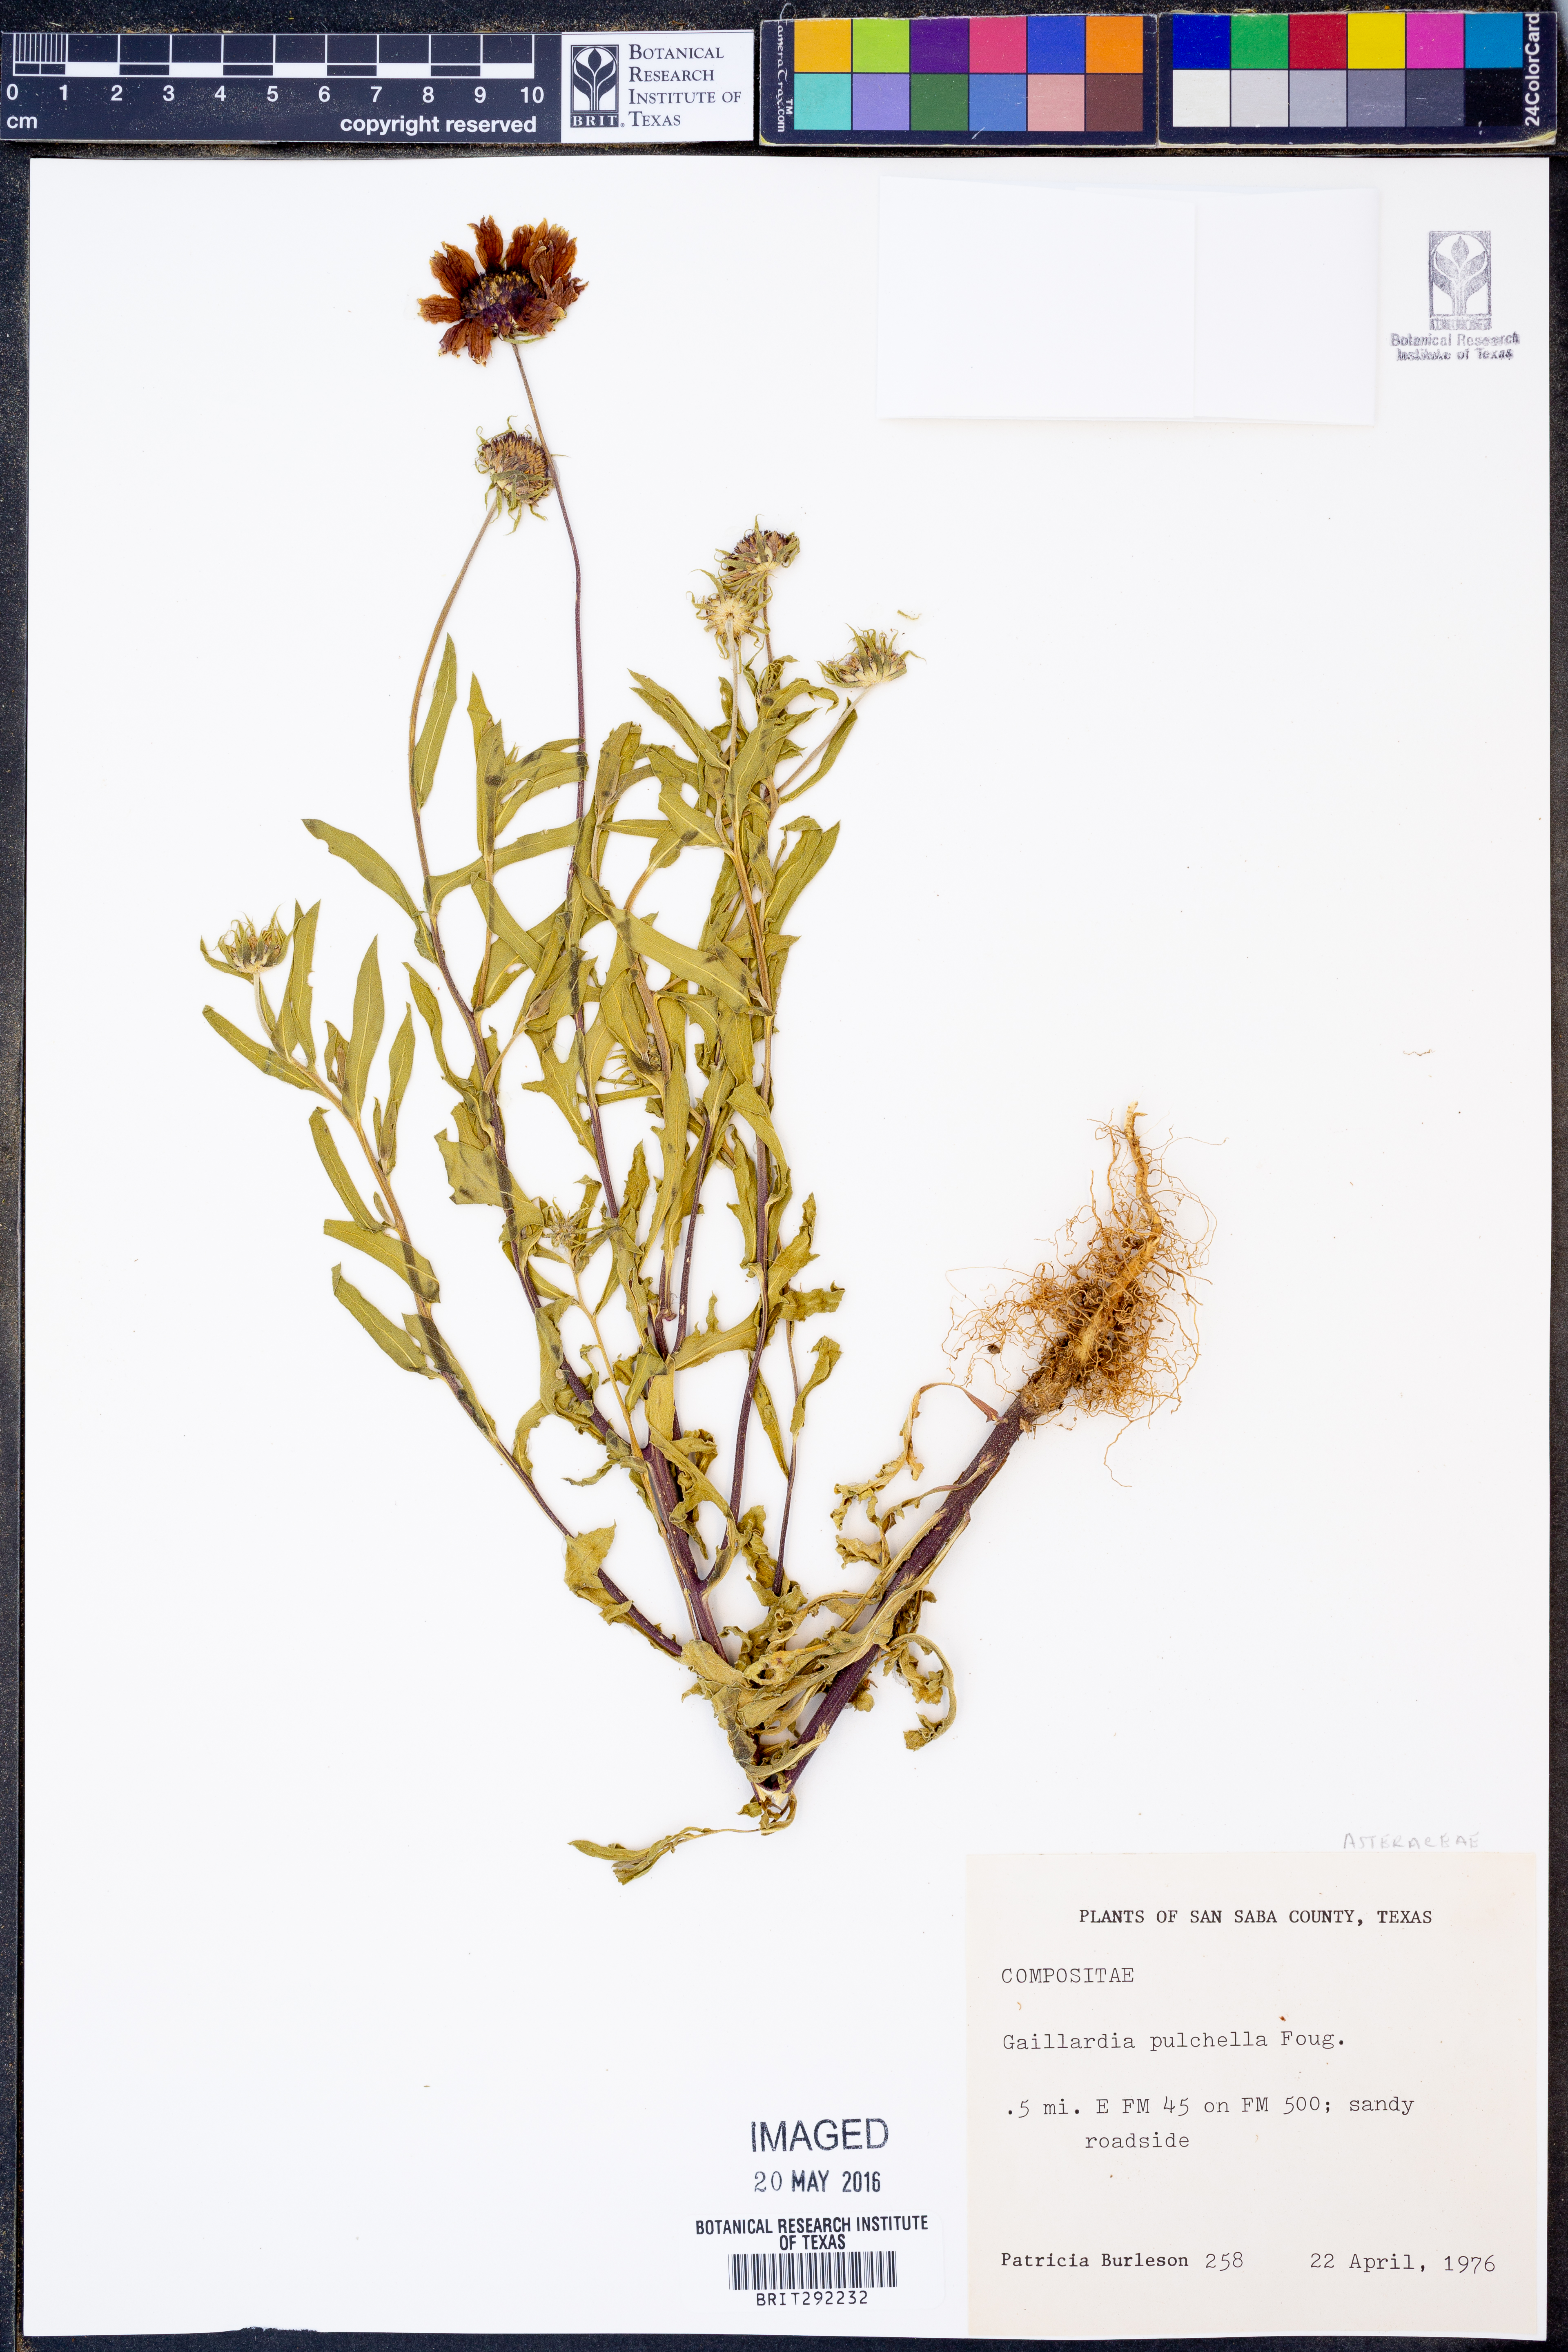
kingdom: Plantae
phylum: Tracheophyta
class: Magnoliopsida
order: Asterales
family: Asteraceae
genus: Gaillardia
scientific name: Gaillardia pulchella
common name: Firewheel
